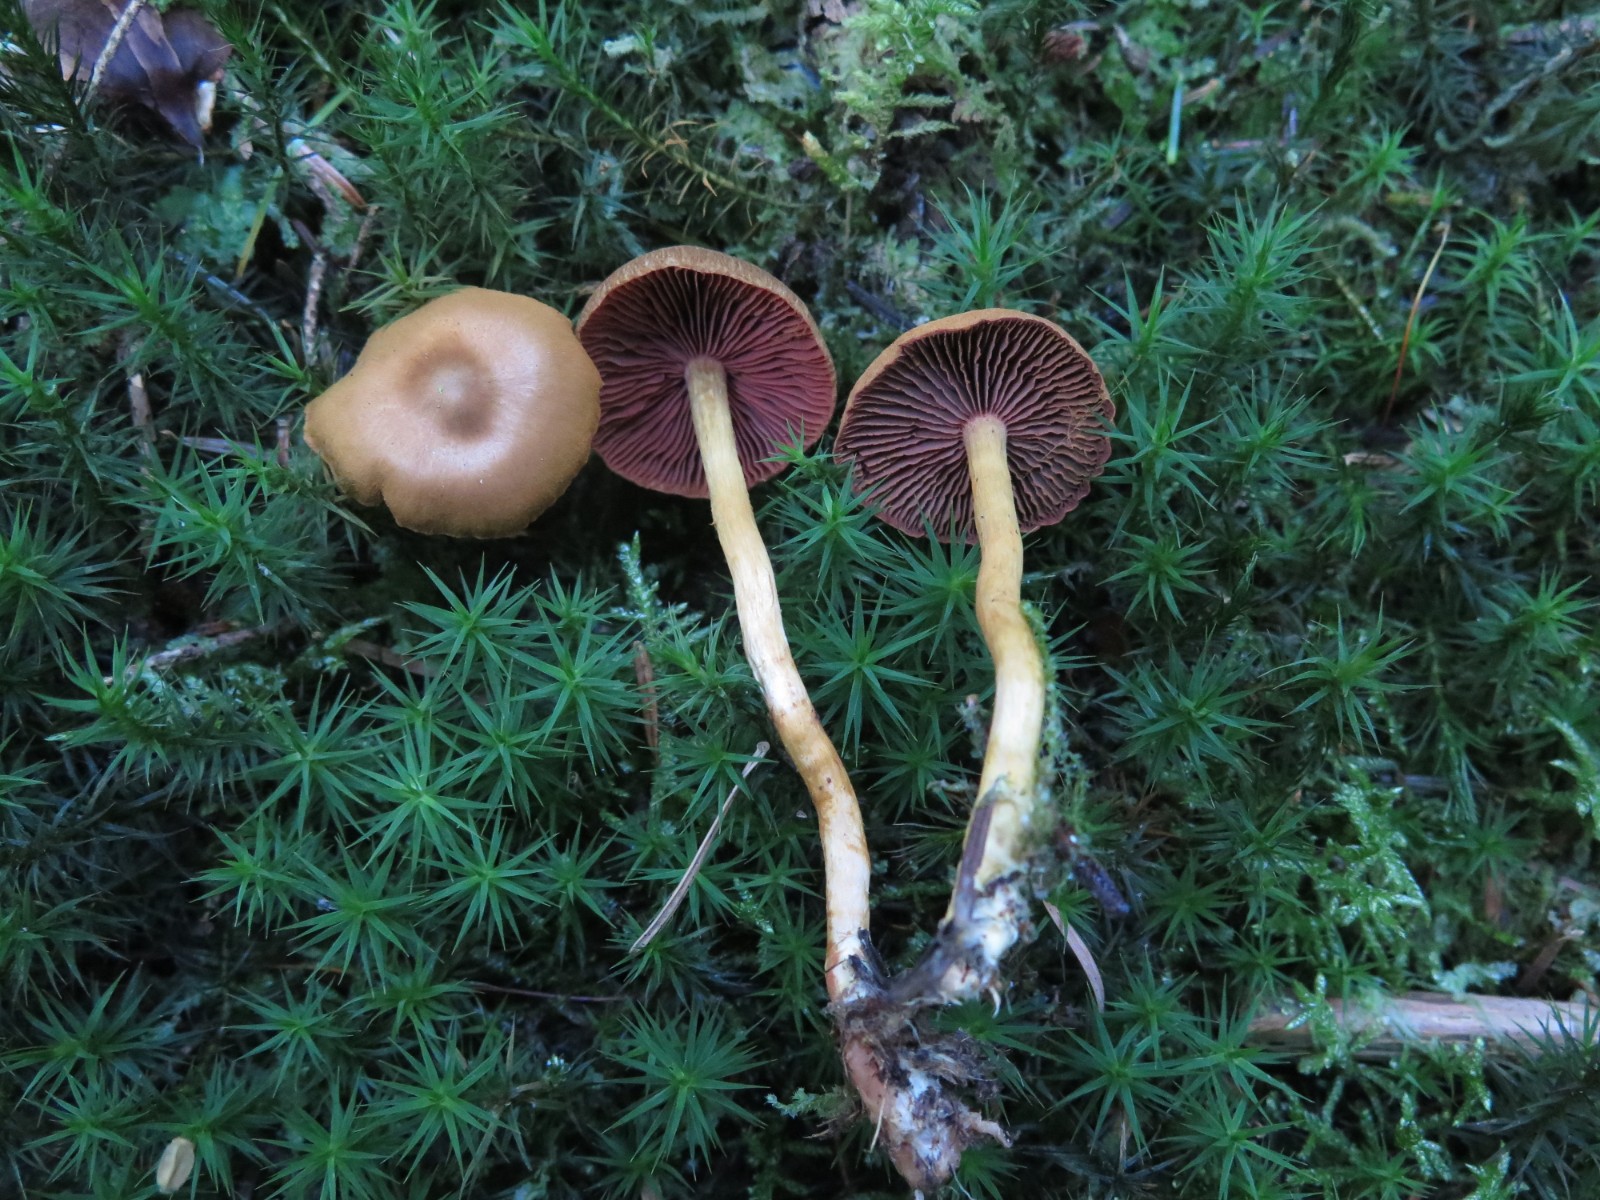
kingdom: Fungi
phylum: Basidiomycota
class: Agaricomycetes
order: Agaricales
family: Cortinariaceae
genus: Cortinarius
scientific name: Cortinarius
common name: cinnoberbladet slørhat
